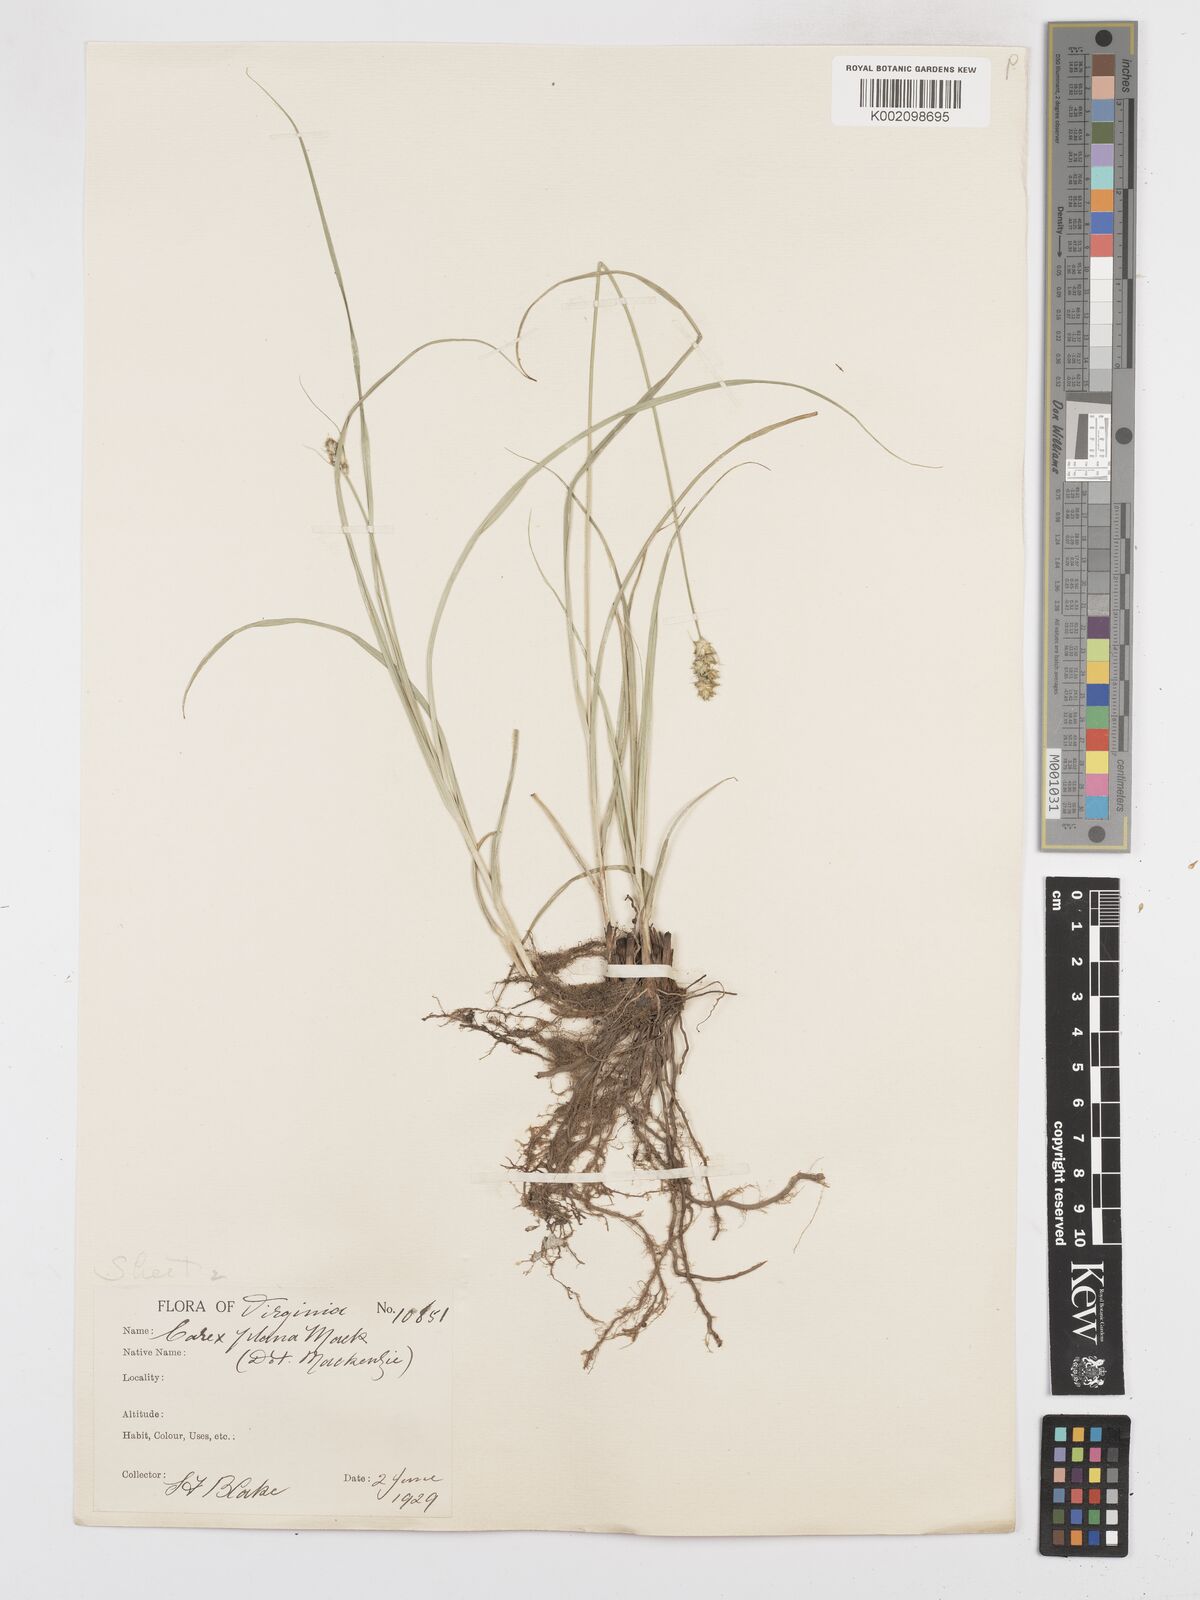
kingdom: Plantae
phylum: Tracheophyta
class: Liliopsida
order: Poales
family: Cyperaceae
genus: Carex
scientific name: Carex muehlenbergii
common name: Muhlenberg's bracted sedge
